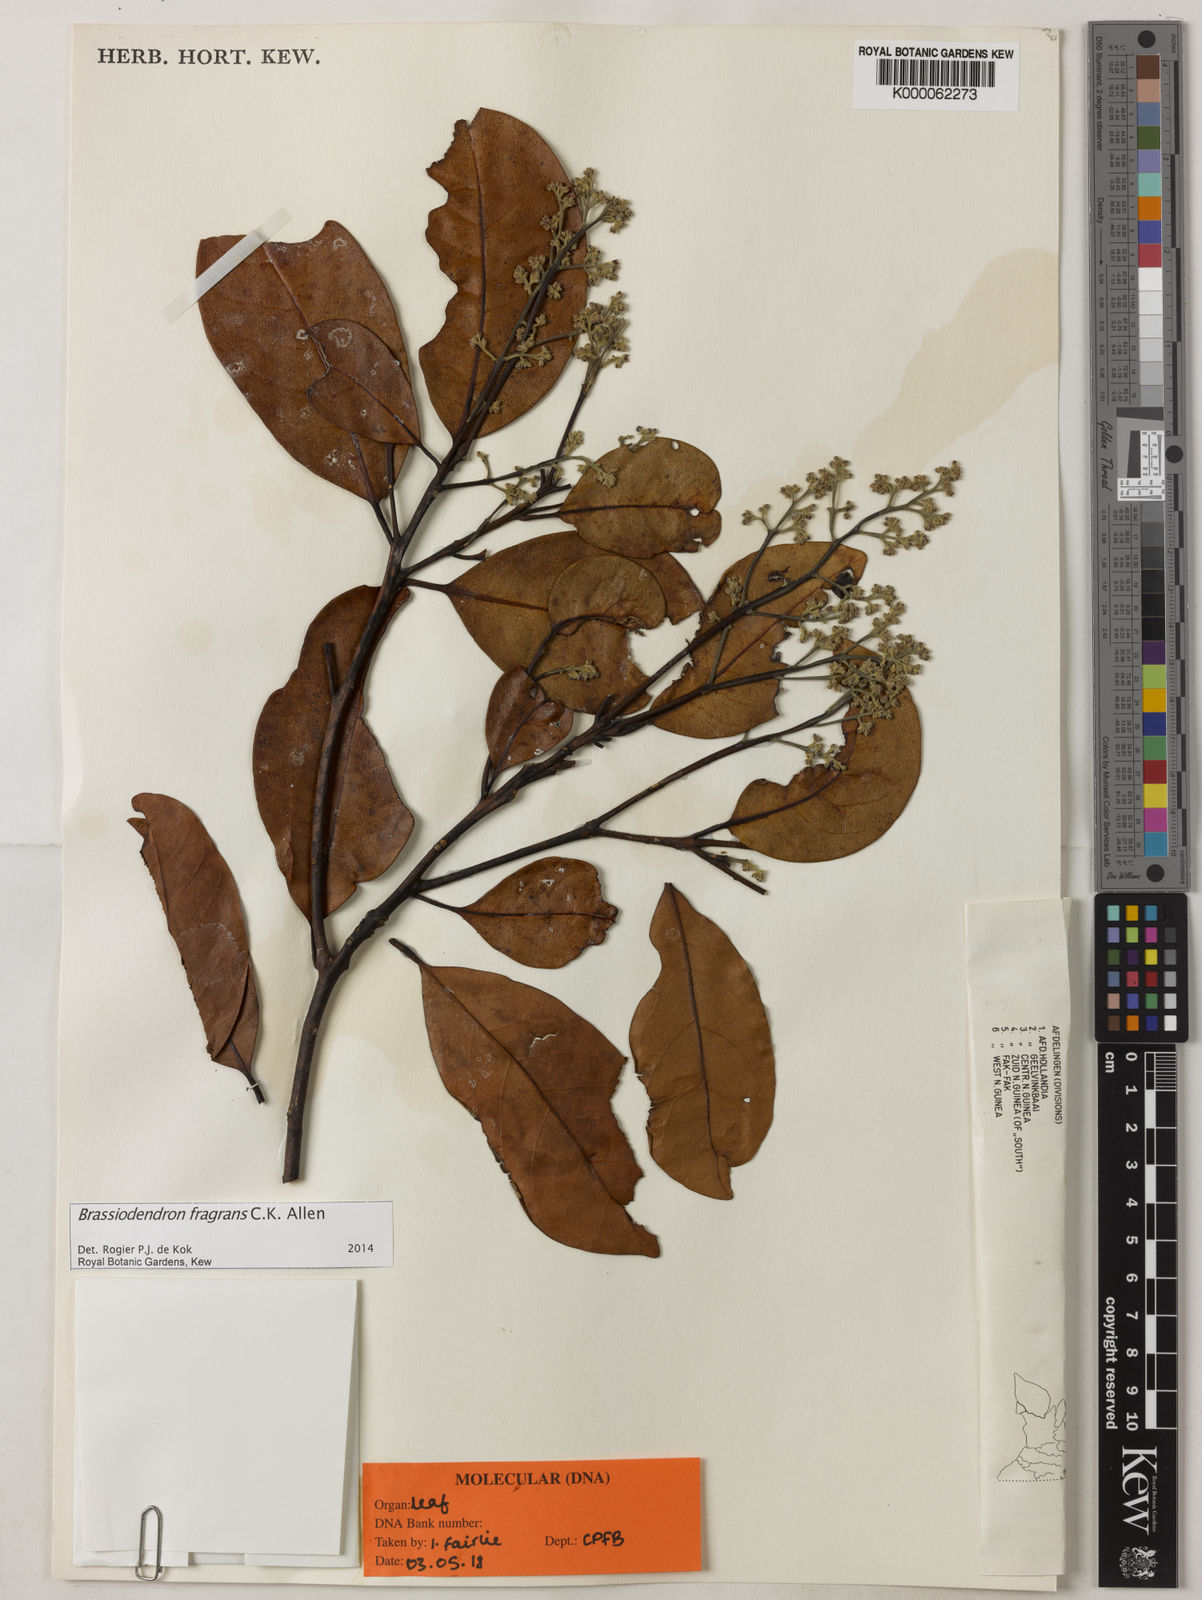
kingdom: Plantae
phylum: Tracheophyta
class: Magnoliopsida
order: Laurales
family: Lauraceae
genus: Endiandra
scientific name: Endiandra
